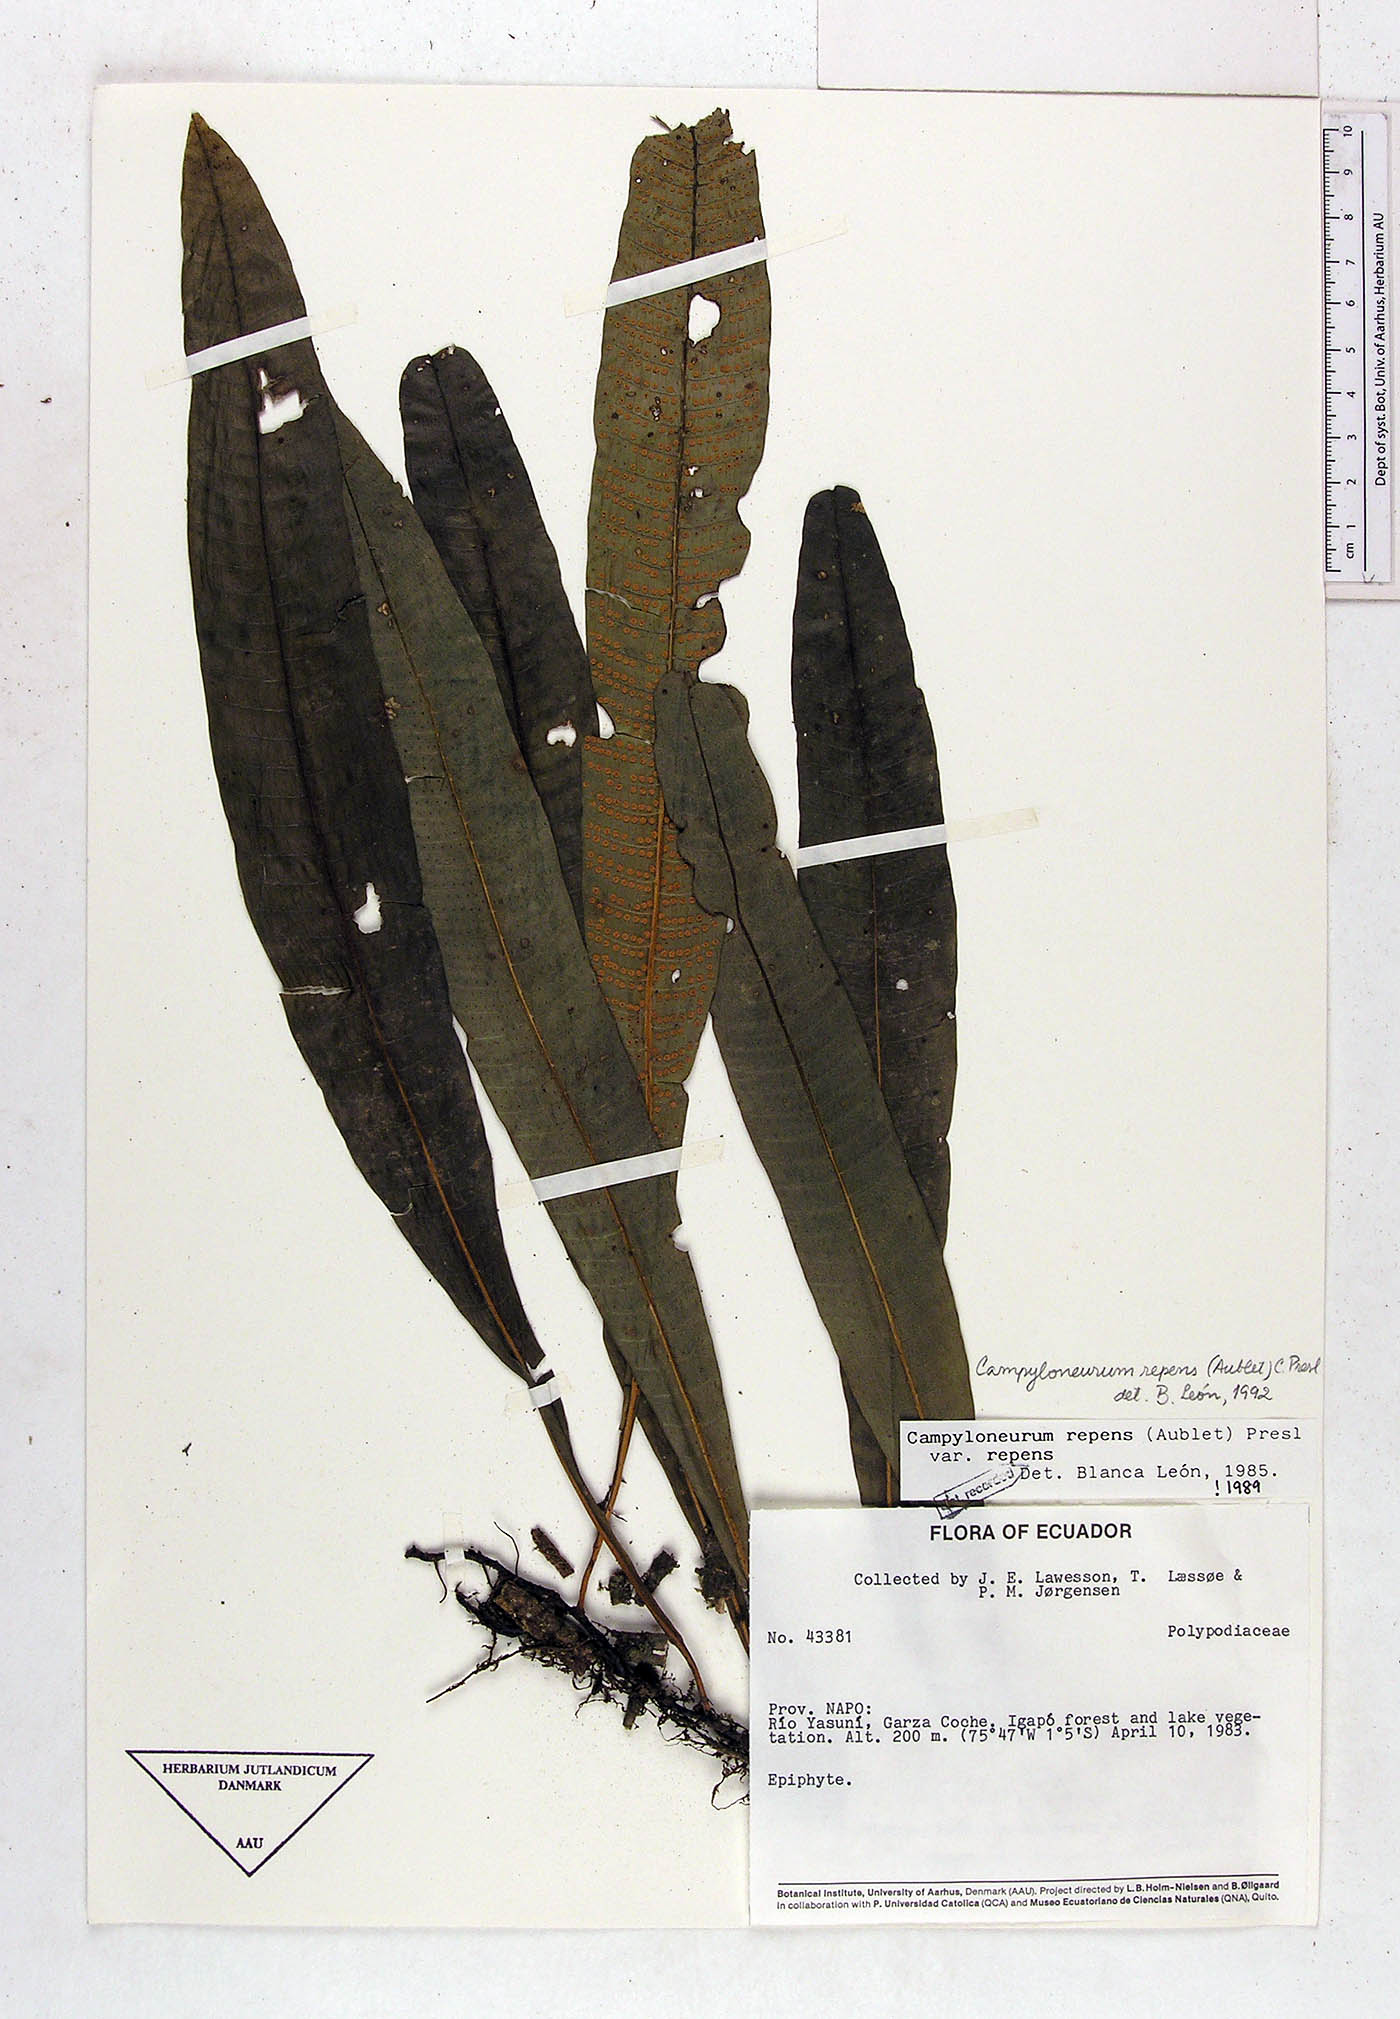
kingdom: Plantae
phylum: Tracheophyta
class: Polypodiopsida
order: Polypodiales
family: Polypodiaceae
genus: Campyloneurum
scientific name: Campyloneurum repens
